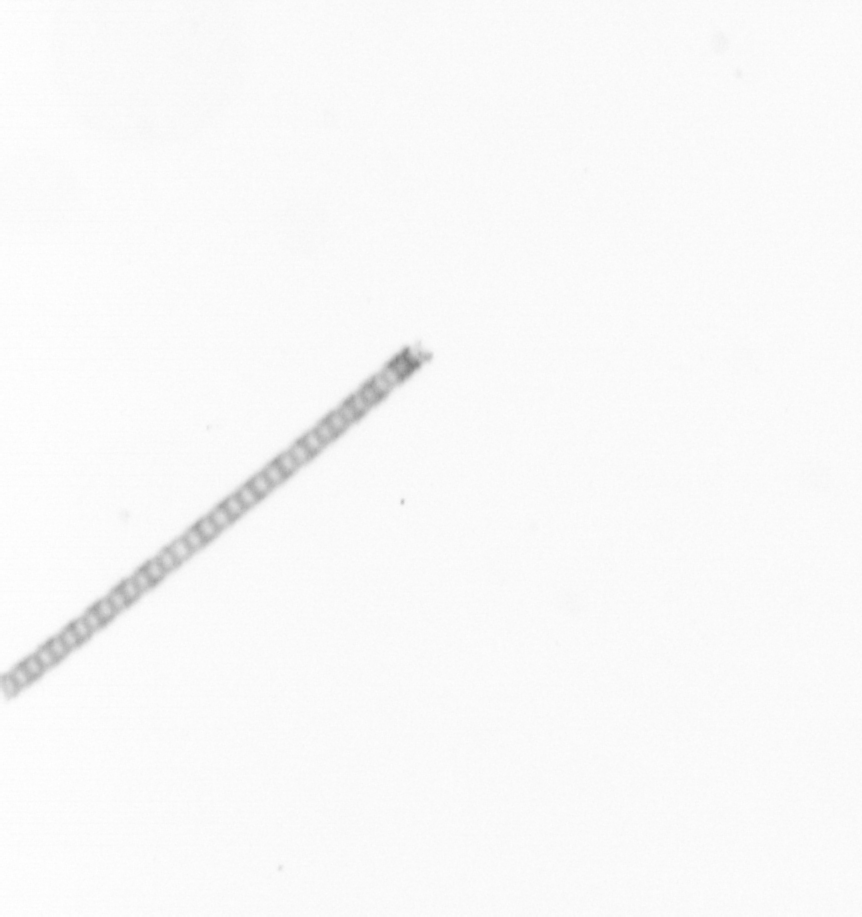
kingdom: Chromista
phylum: Ochrophyta
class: Bacillariophyceae
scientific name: Bacillariophyceae
